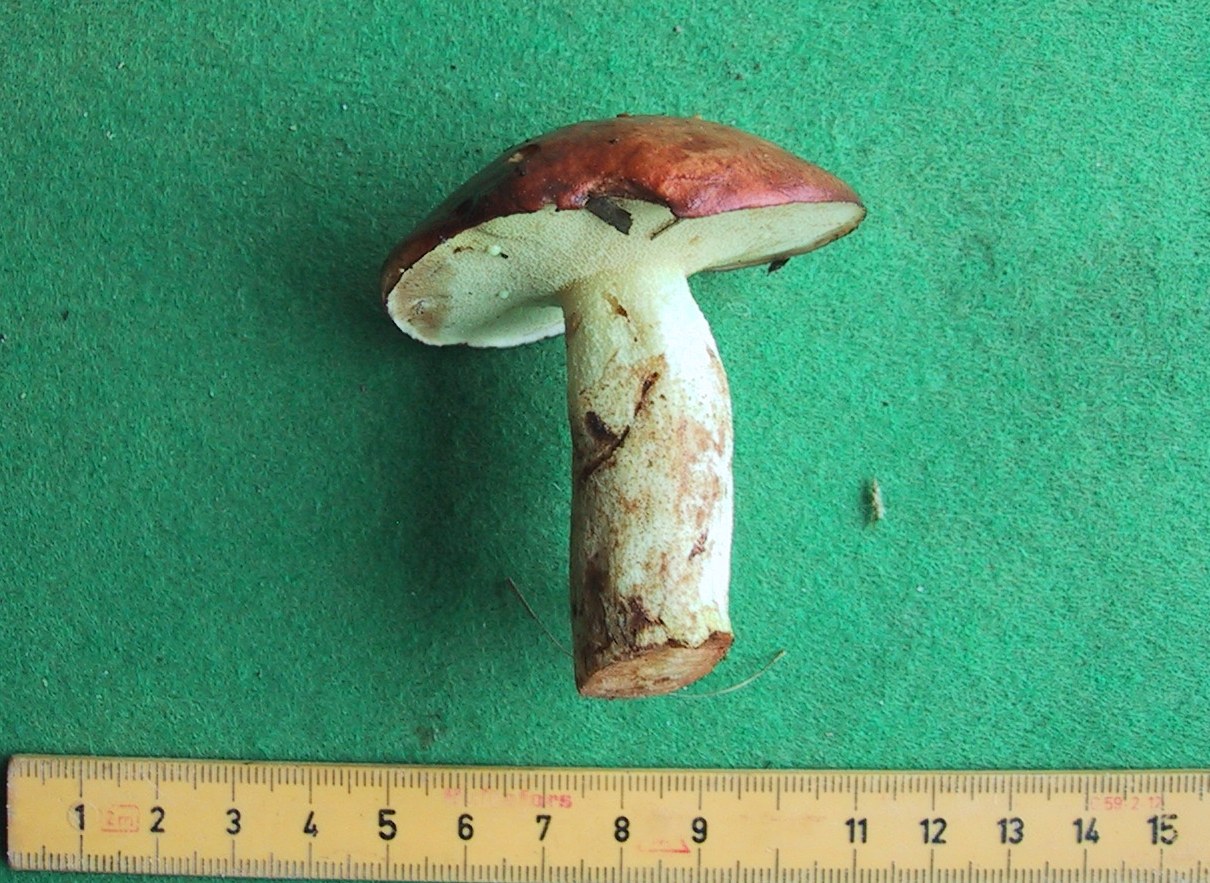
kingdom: Fungi
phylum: Basidiomycota
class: Agaricomycetes
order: Boletales
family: Suillaceae
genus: Suillus
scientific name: Suillus granulatus
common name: kornet slimrørhat
